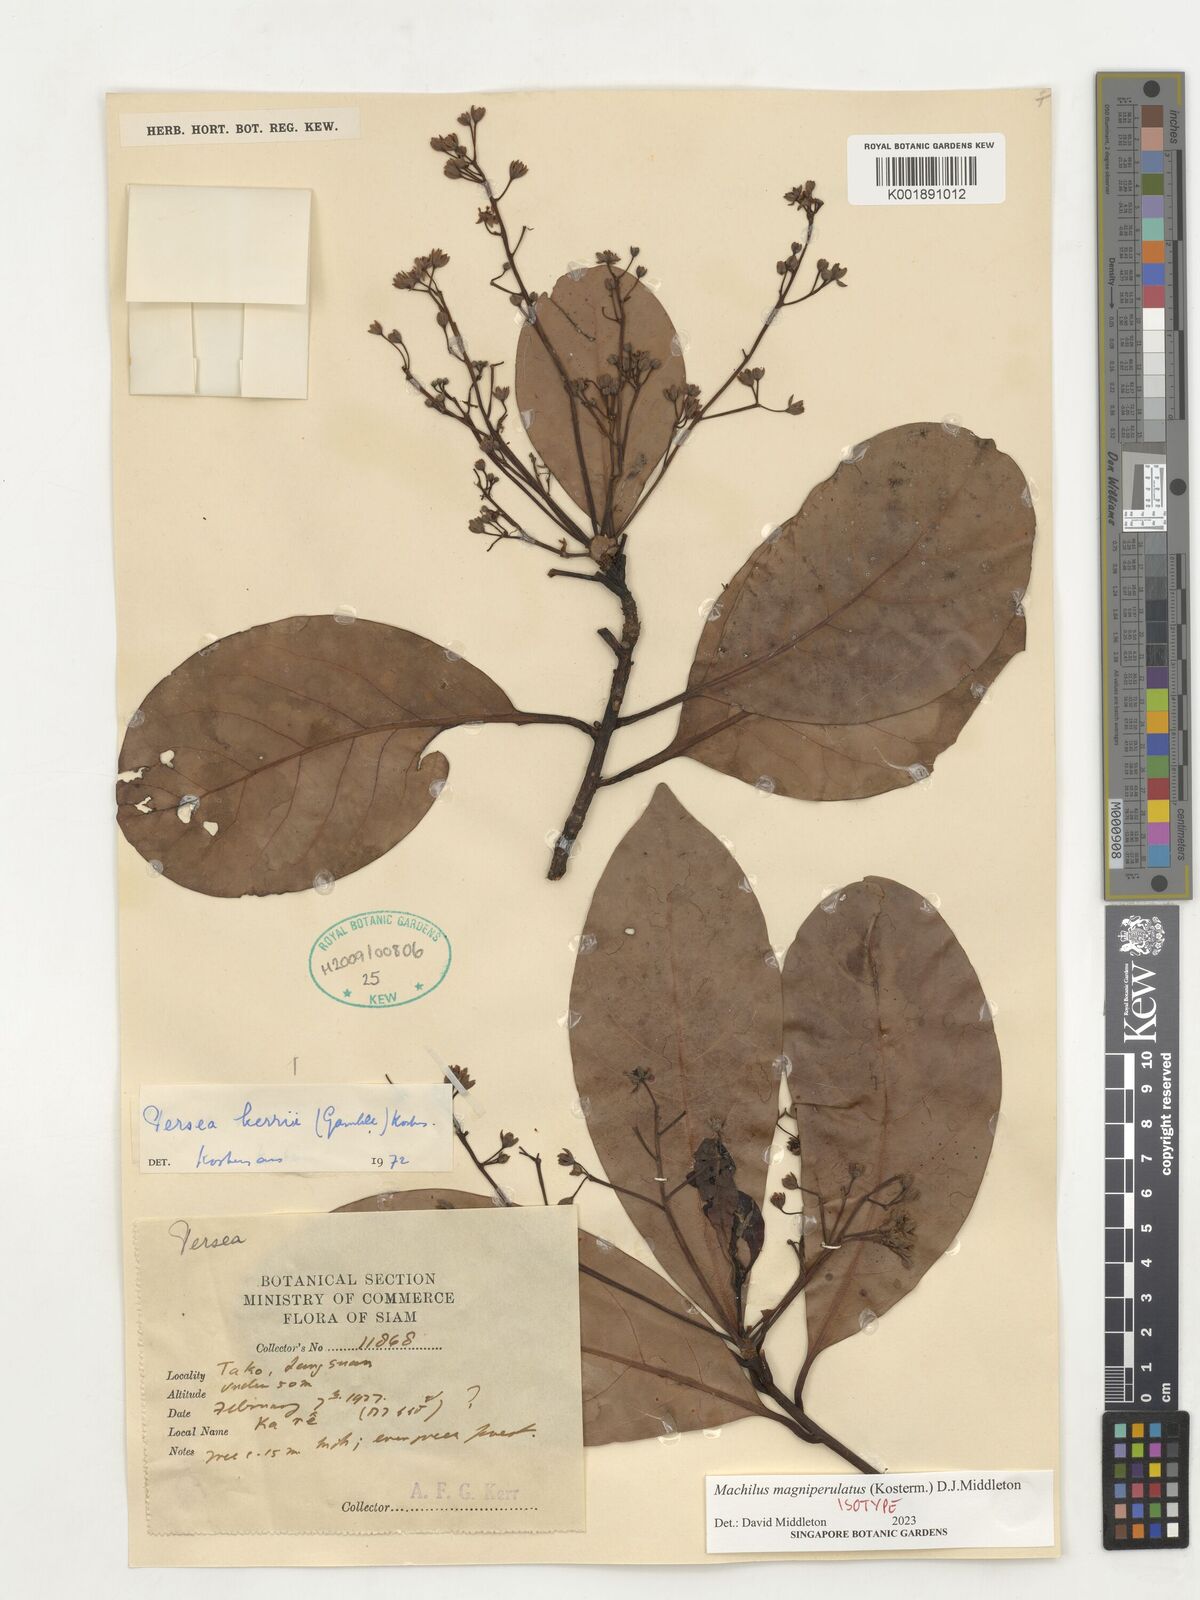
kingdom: Plantae
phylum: Tracheophyta
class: Magnoliopsida
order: Laurales
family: Lauraceae
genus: Machilus
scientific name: Machilus
